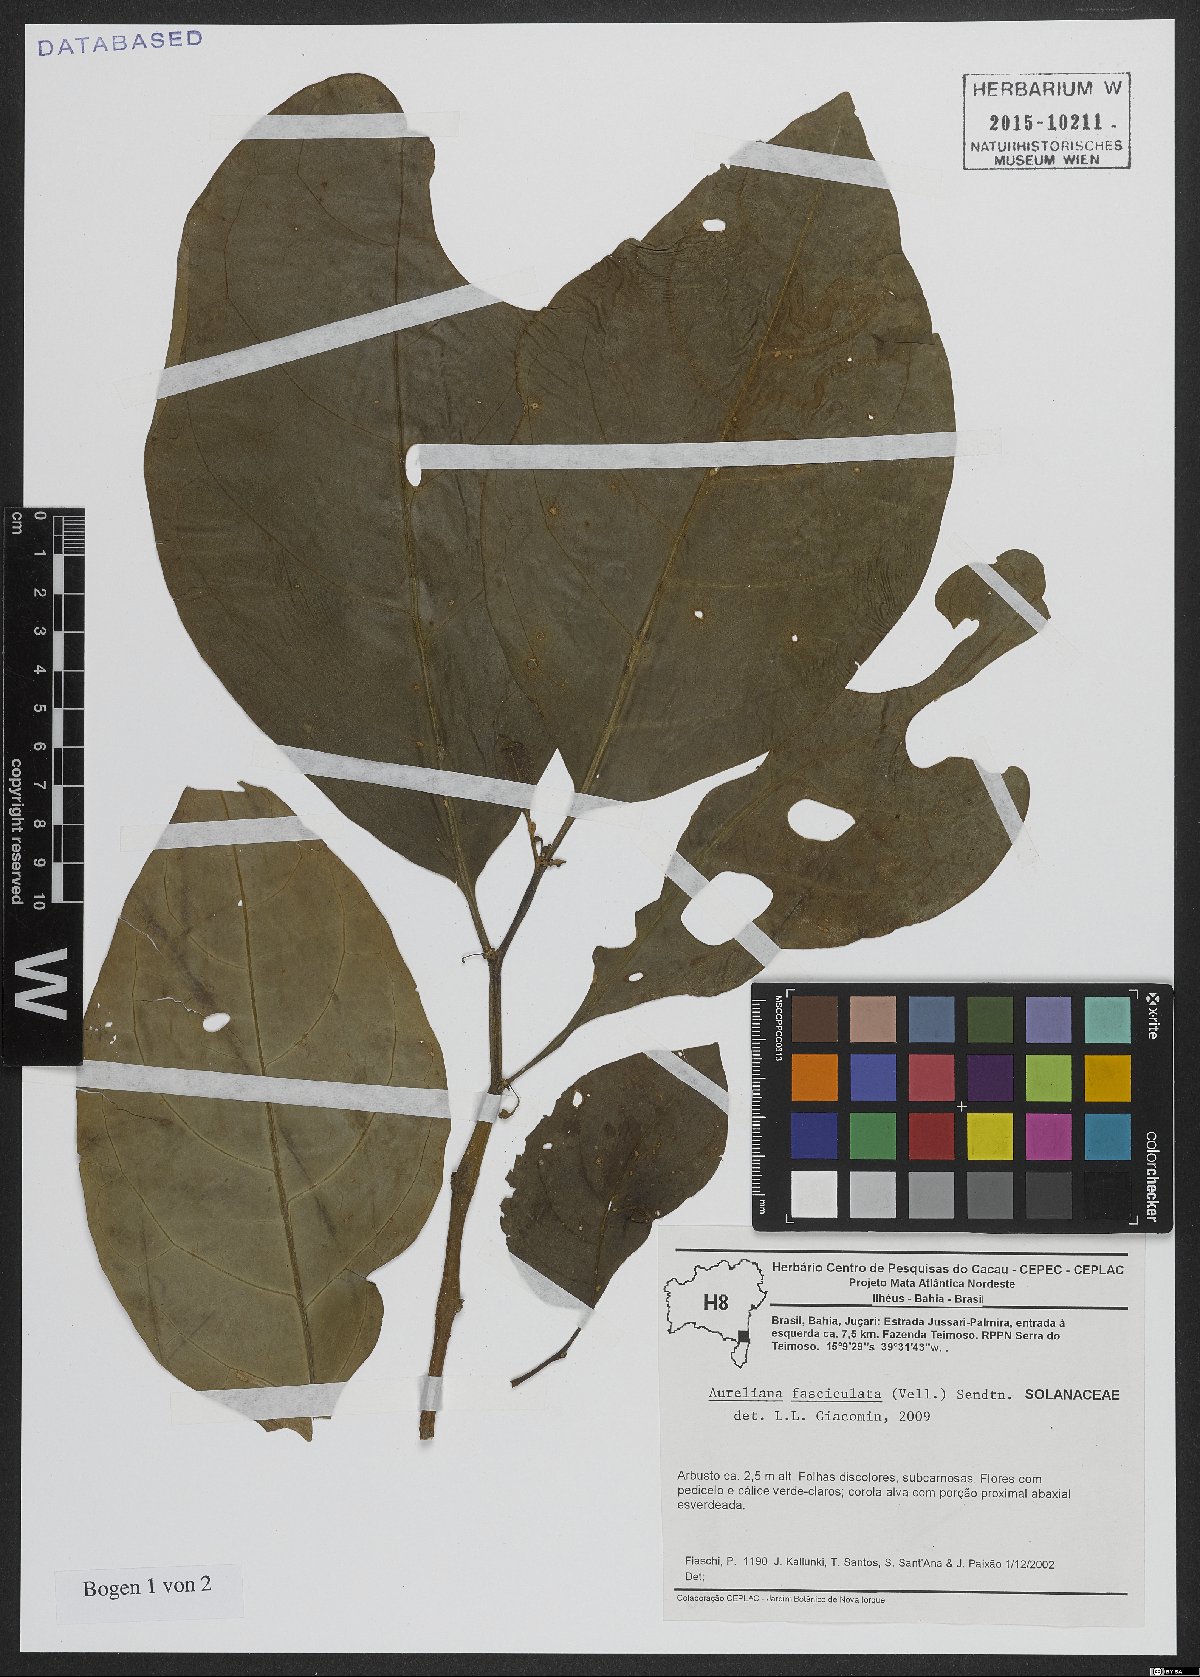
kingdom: Plantae
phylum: Tracheophyta
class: Magnoliopsida
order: Solanales
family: Solanaceae
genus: Athenaea
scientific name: Athenaea fasciculata
